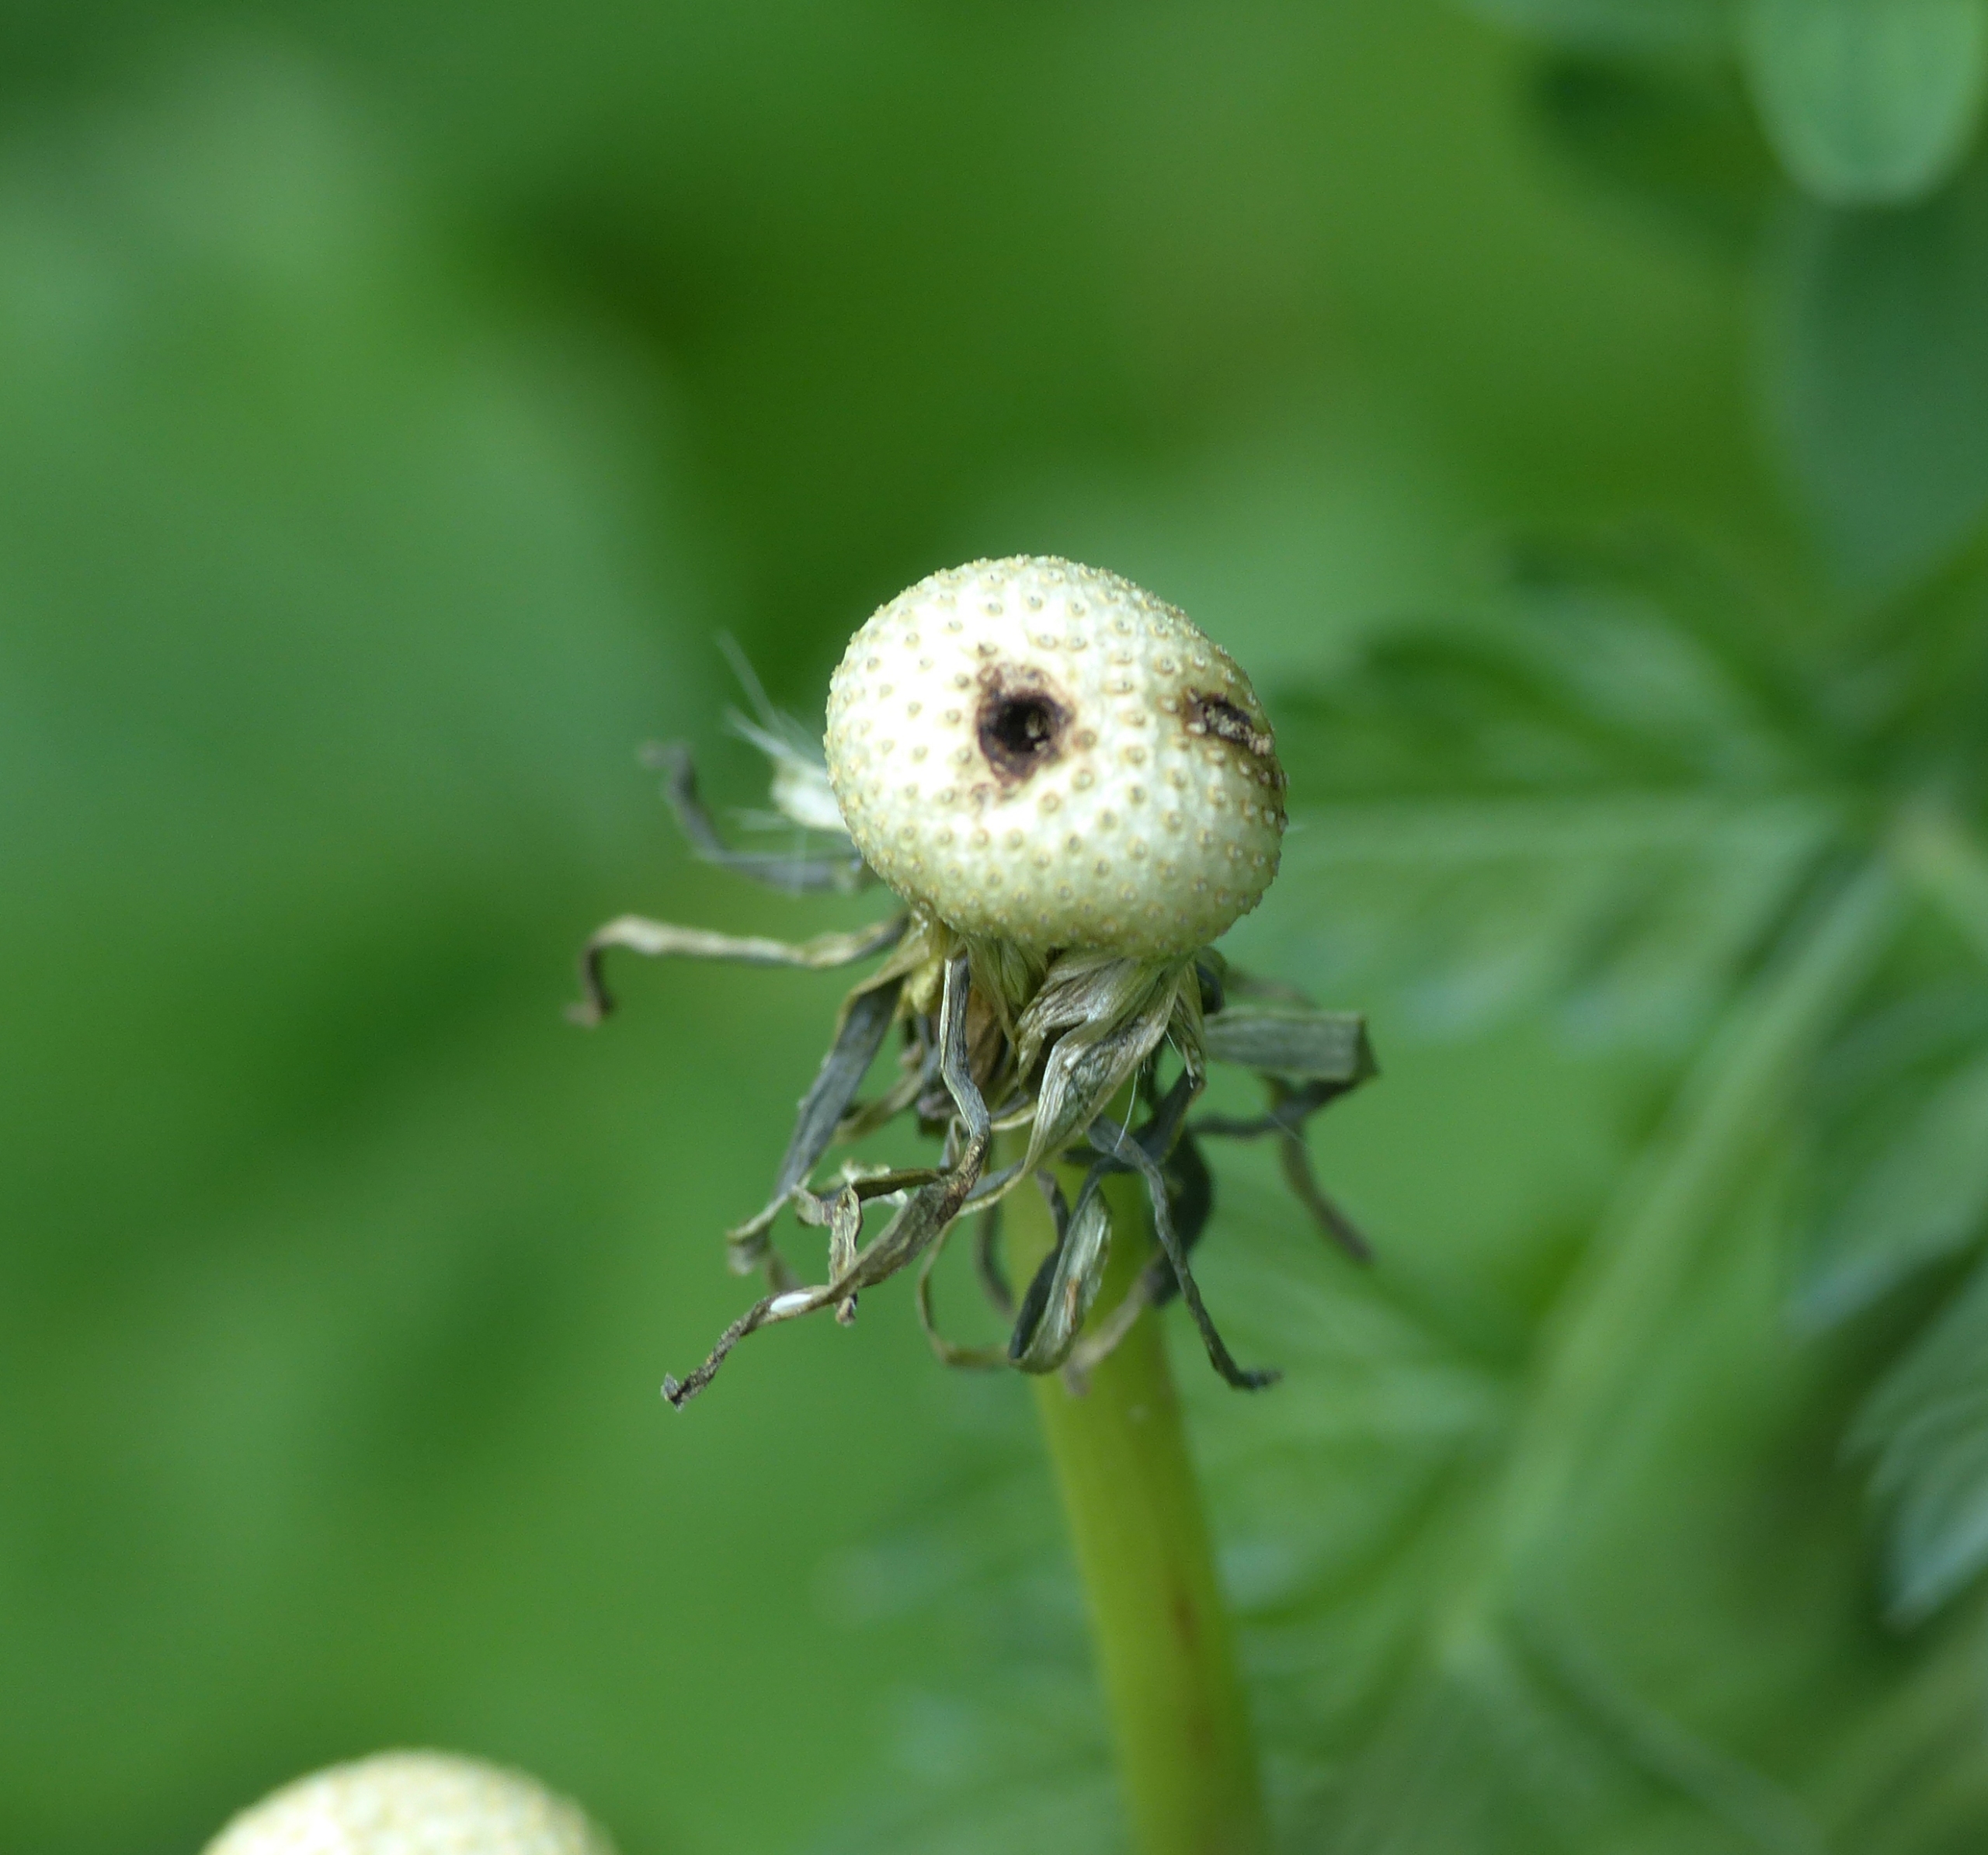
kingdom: Animalia
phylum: Arthropoda
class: Insecta
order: Coleoptera
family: Curculionidae
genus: Rhynchaenus
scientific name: Rhynchaenus punctiger
